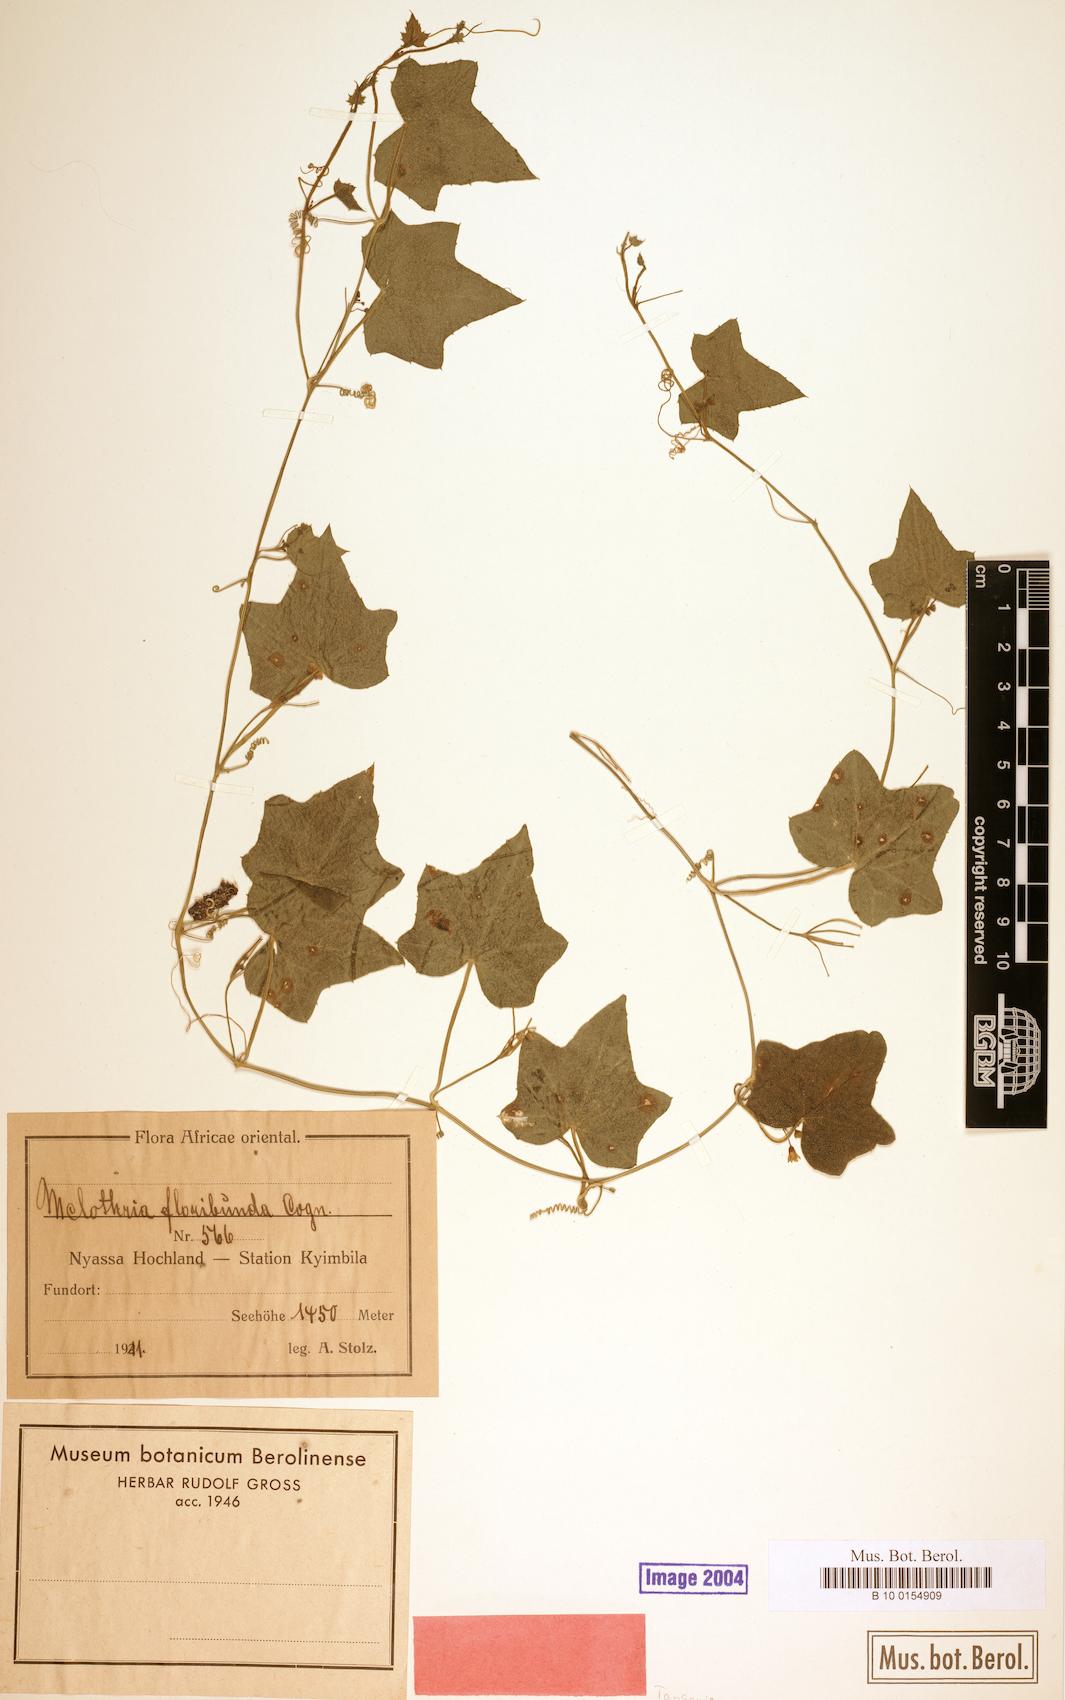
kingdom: Plantae
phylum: Tracheophyta
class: Magnoliopsida
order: Cucurbitales
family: Cucurbitaceae
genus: Zehneria
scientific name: Zehneria minutiflora
